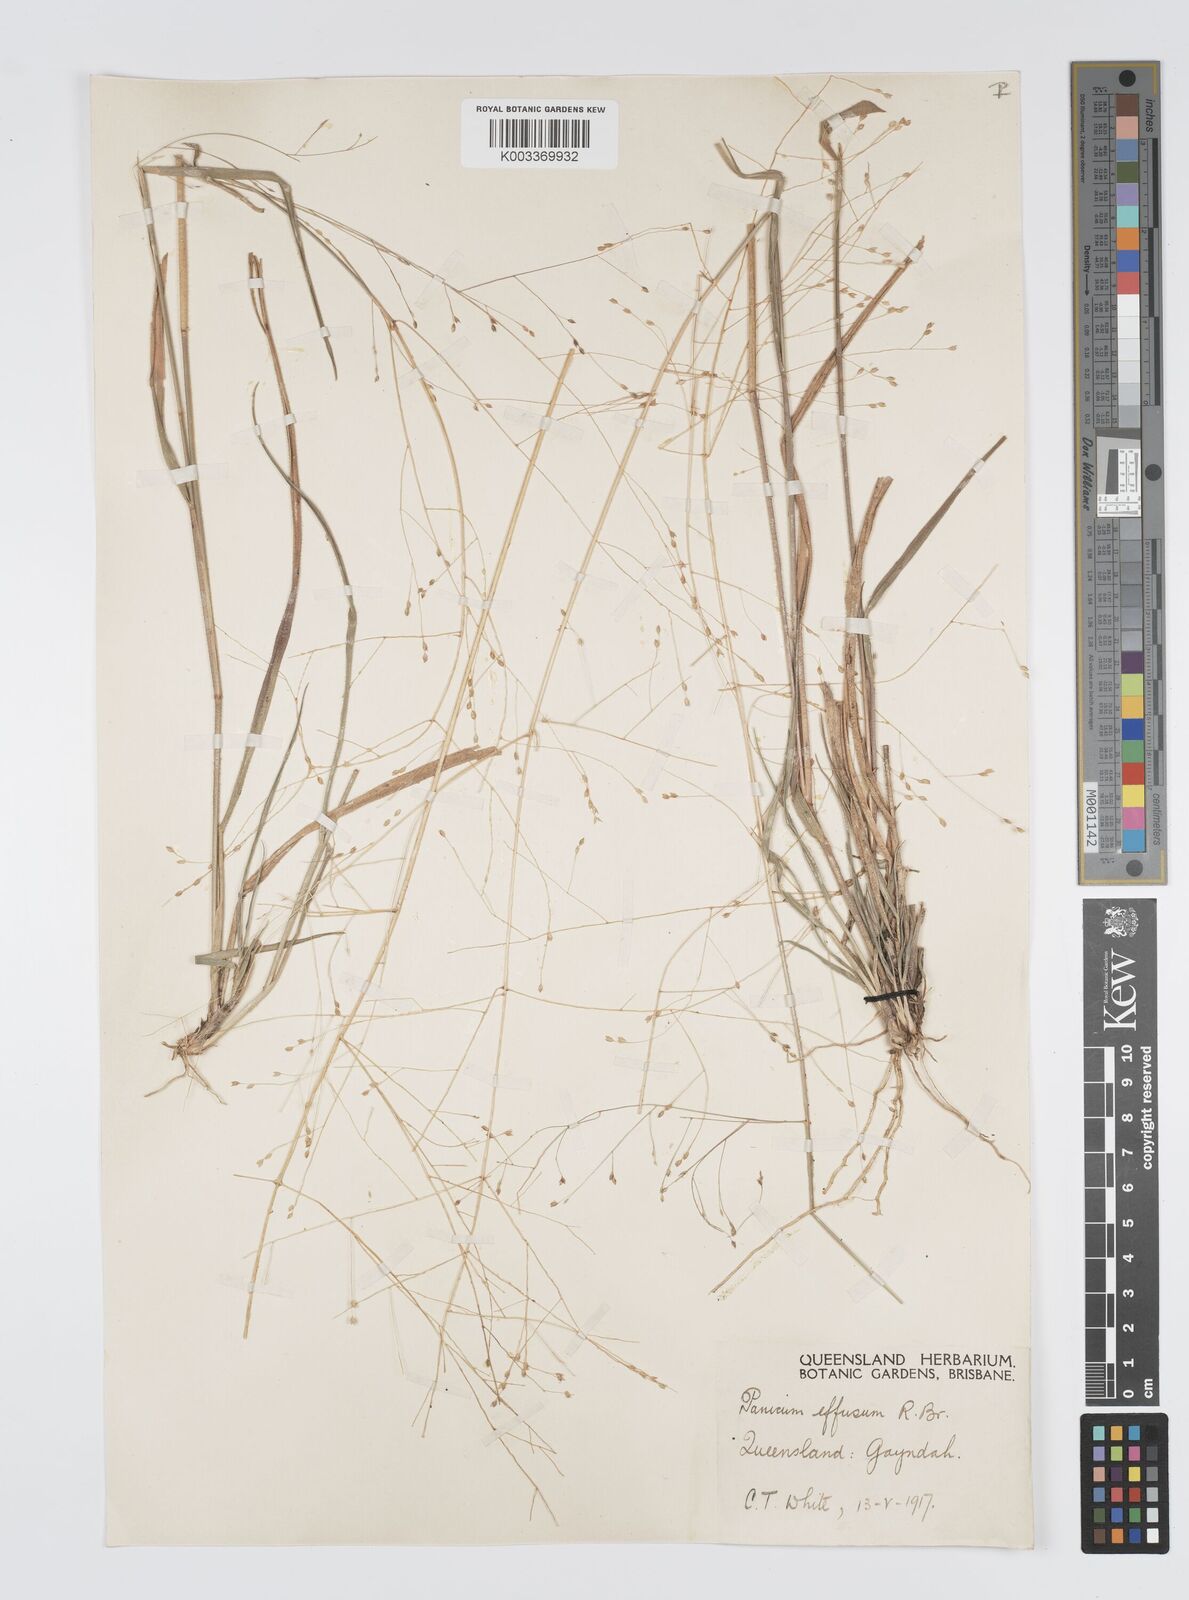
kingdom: Plantae
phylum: Tracheophyta
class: Liliopsida
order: Poales
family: Poaceae
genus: Panicum
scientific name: Panicum effusum
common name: Hairy panic grass
